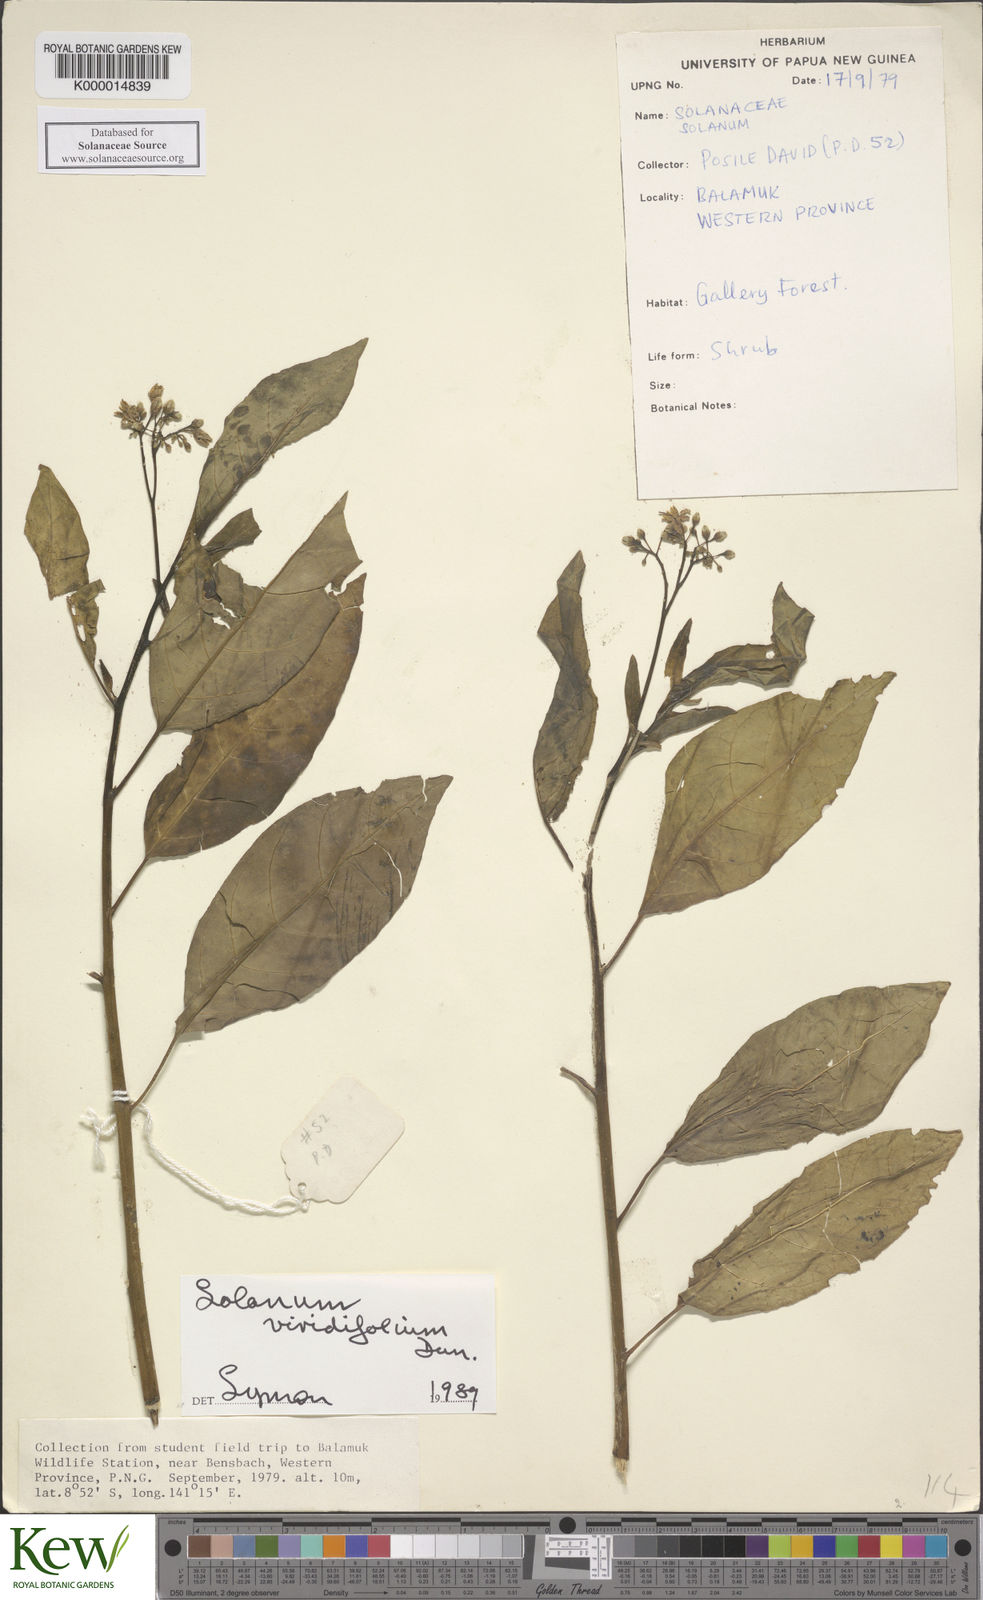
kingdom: Plantae
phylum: Tracheophyta
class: Magnoliopsida
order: Solanales
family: Solanaceae
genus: Solanum
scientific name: Solanum viridifolium
